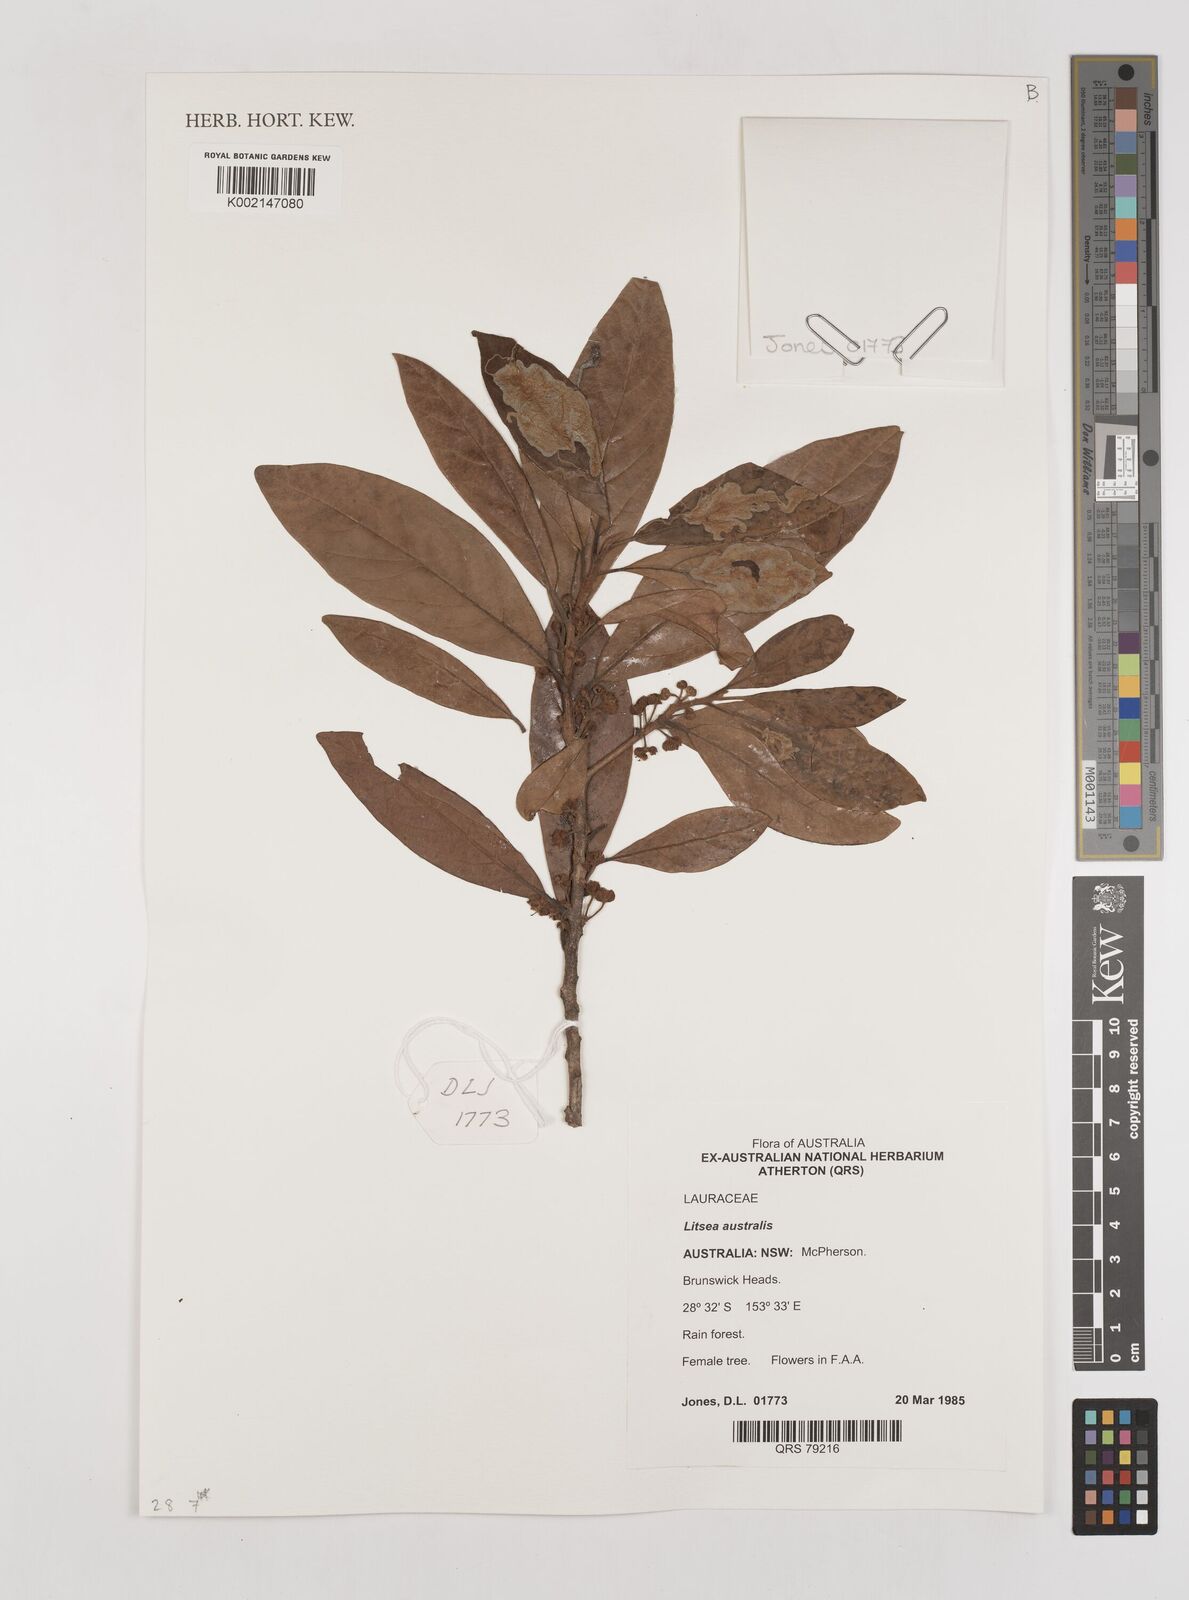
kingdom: Plantae
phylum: Tracheophyta
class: Magnoliopsida
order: Laurales
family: Lauraceae
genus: Litsea
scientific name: Litsea australis
